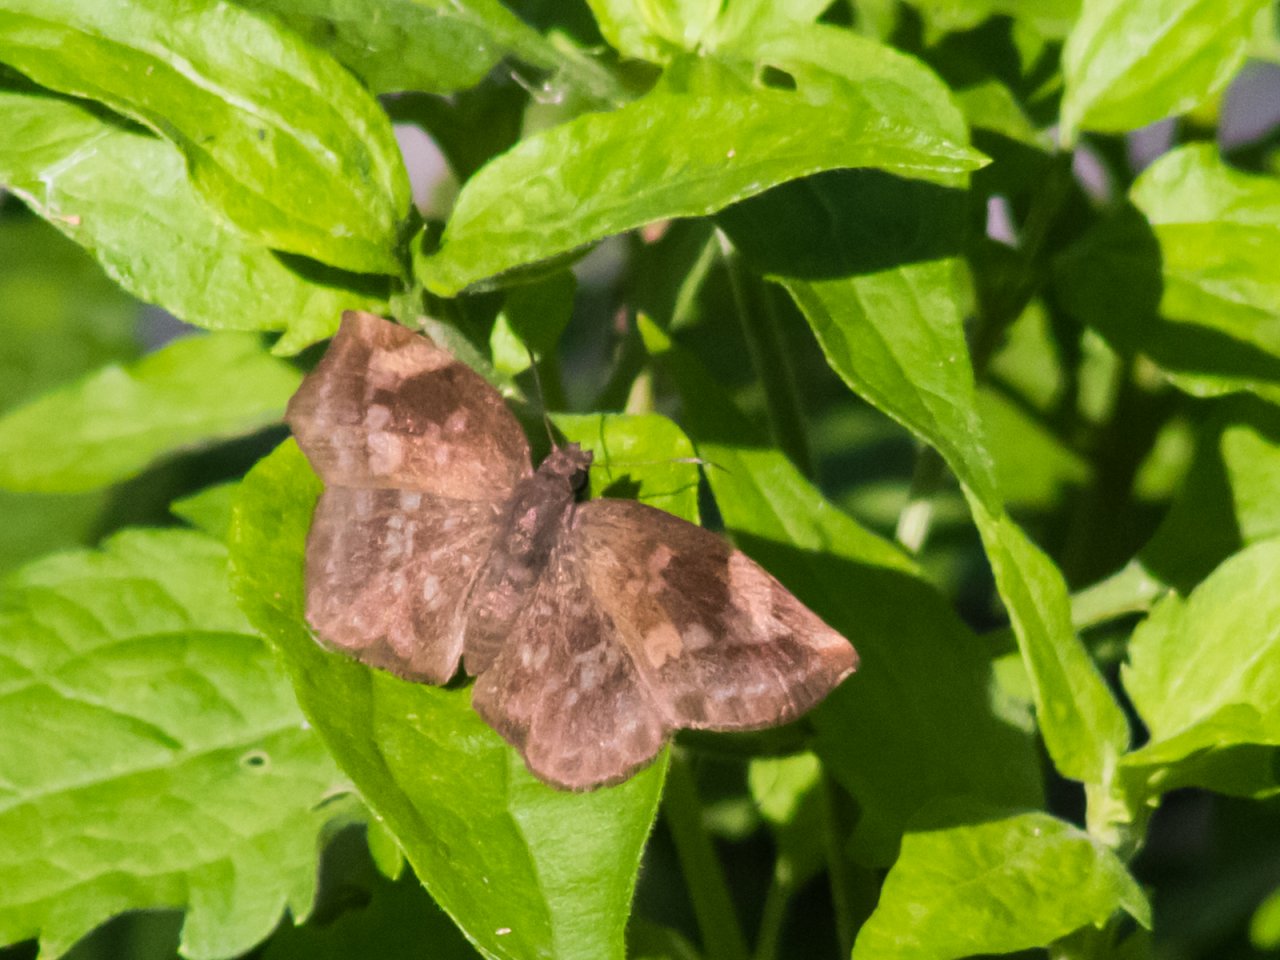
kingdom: Animalia
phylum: Arthropoda
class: Insecta
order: Lepidoptera
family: Hesperiidae
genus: Achlyodes
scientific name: Achlyodes thraso
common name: Sickle-winged Skipper
